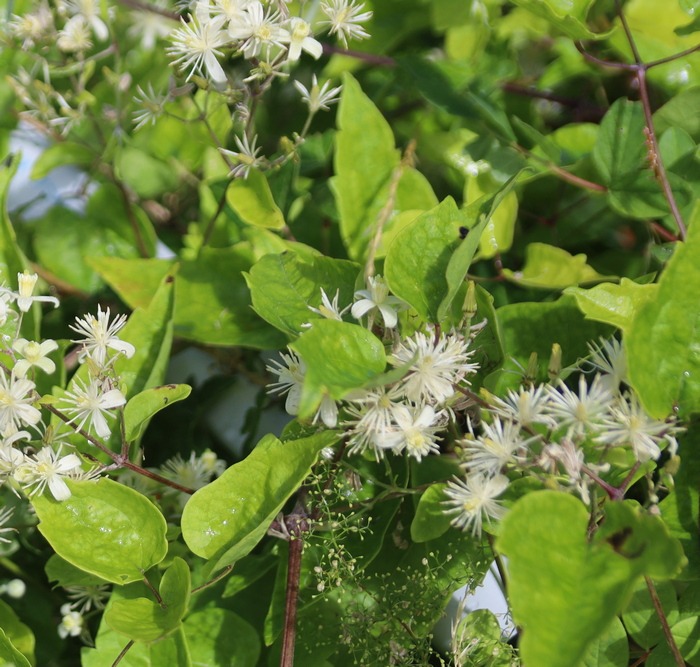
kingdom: Plantae
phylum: Tracheophyta
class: Magnoliopsida
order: Ranunculales
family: Ranunculaceae
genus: Clematis
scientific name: Clematis vitalba
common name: Skovranke
